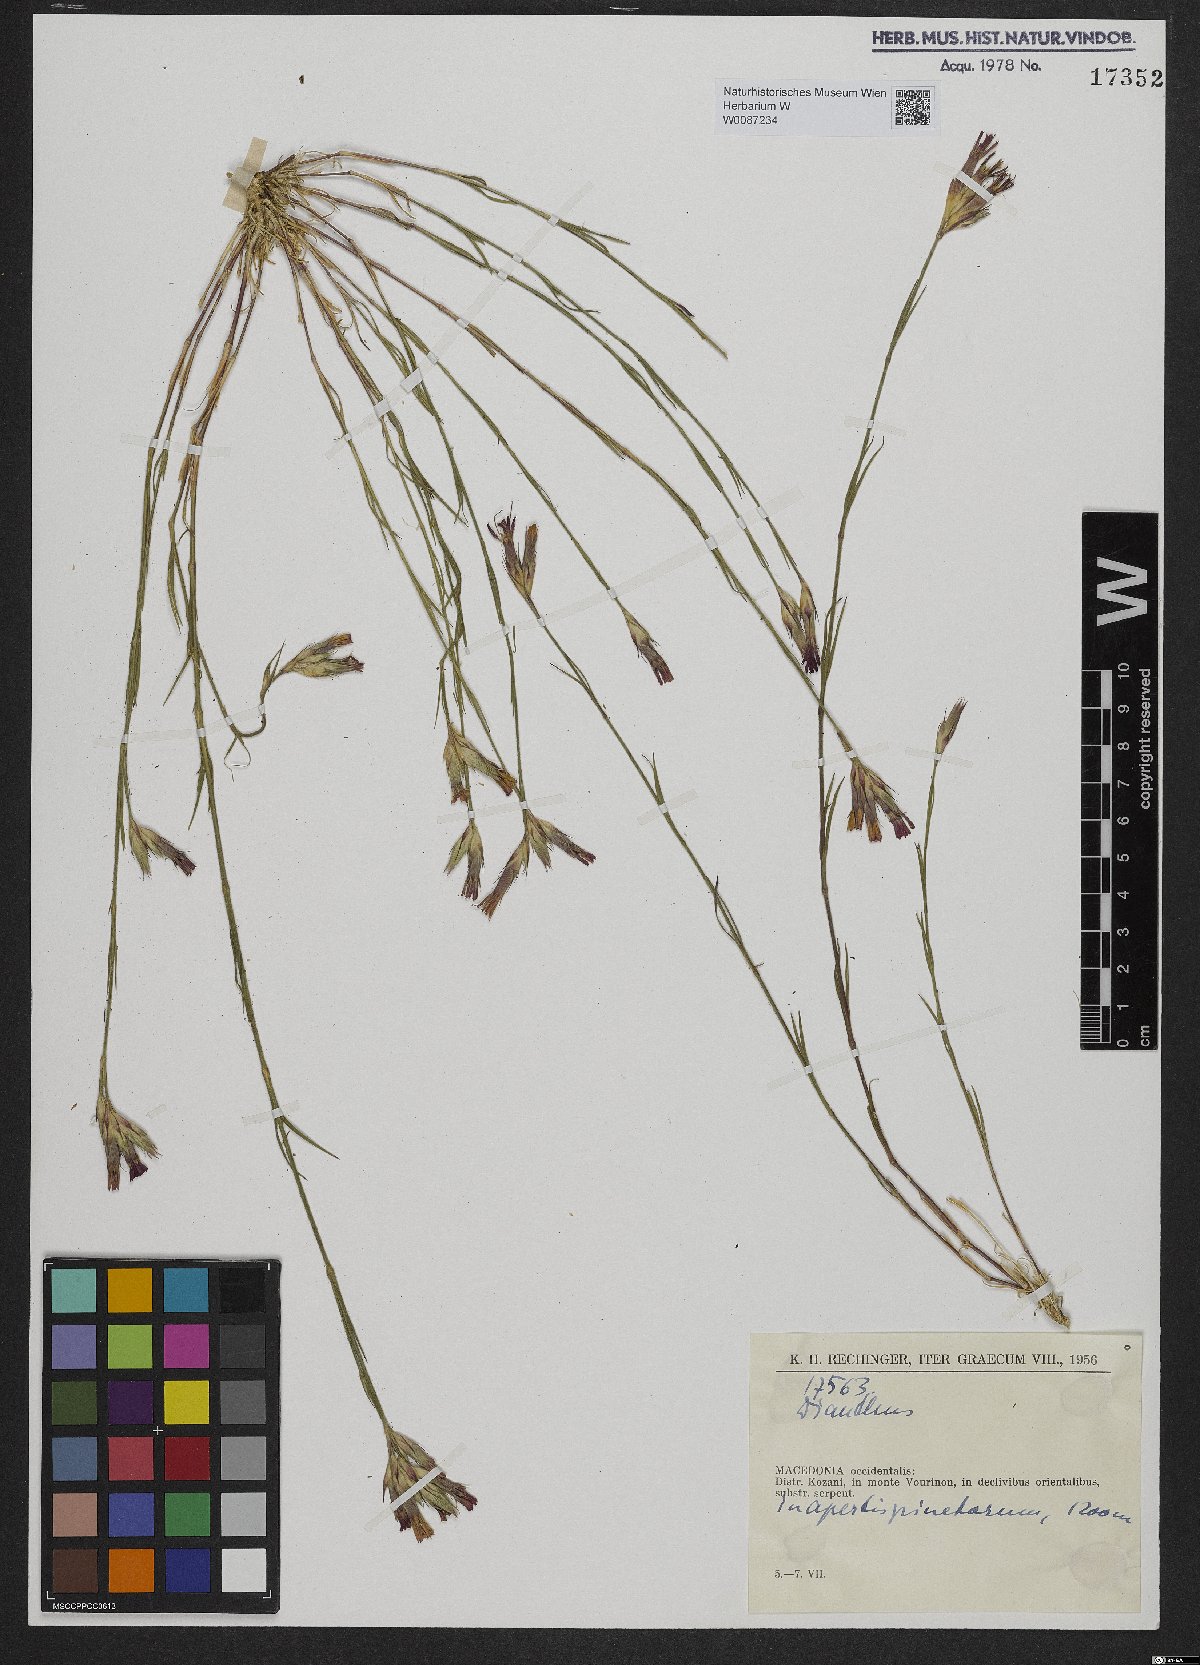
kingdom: Plantae
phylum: Tracheophyta
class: Magnoliopsida
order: Caryophyllales
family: Caryophyllaceae
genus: Dianthus
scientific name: Dianthus
